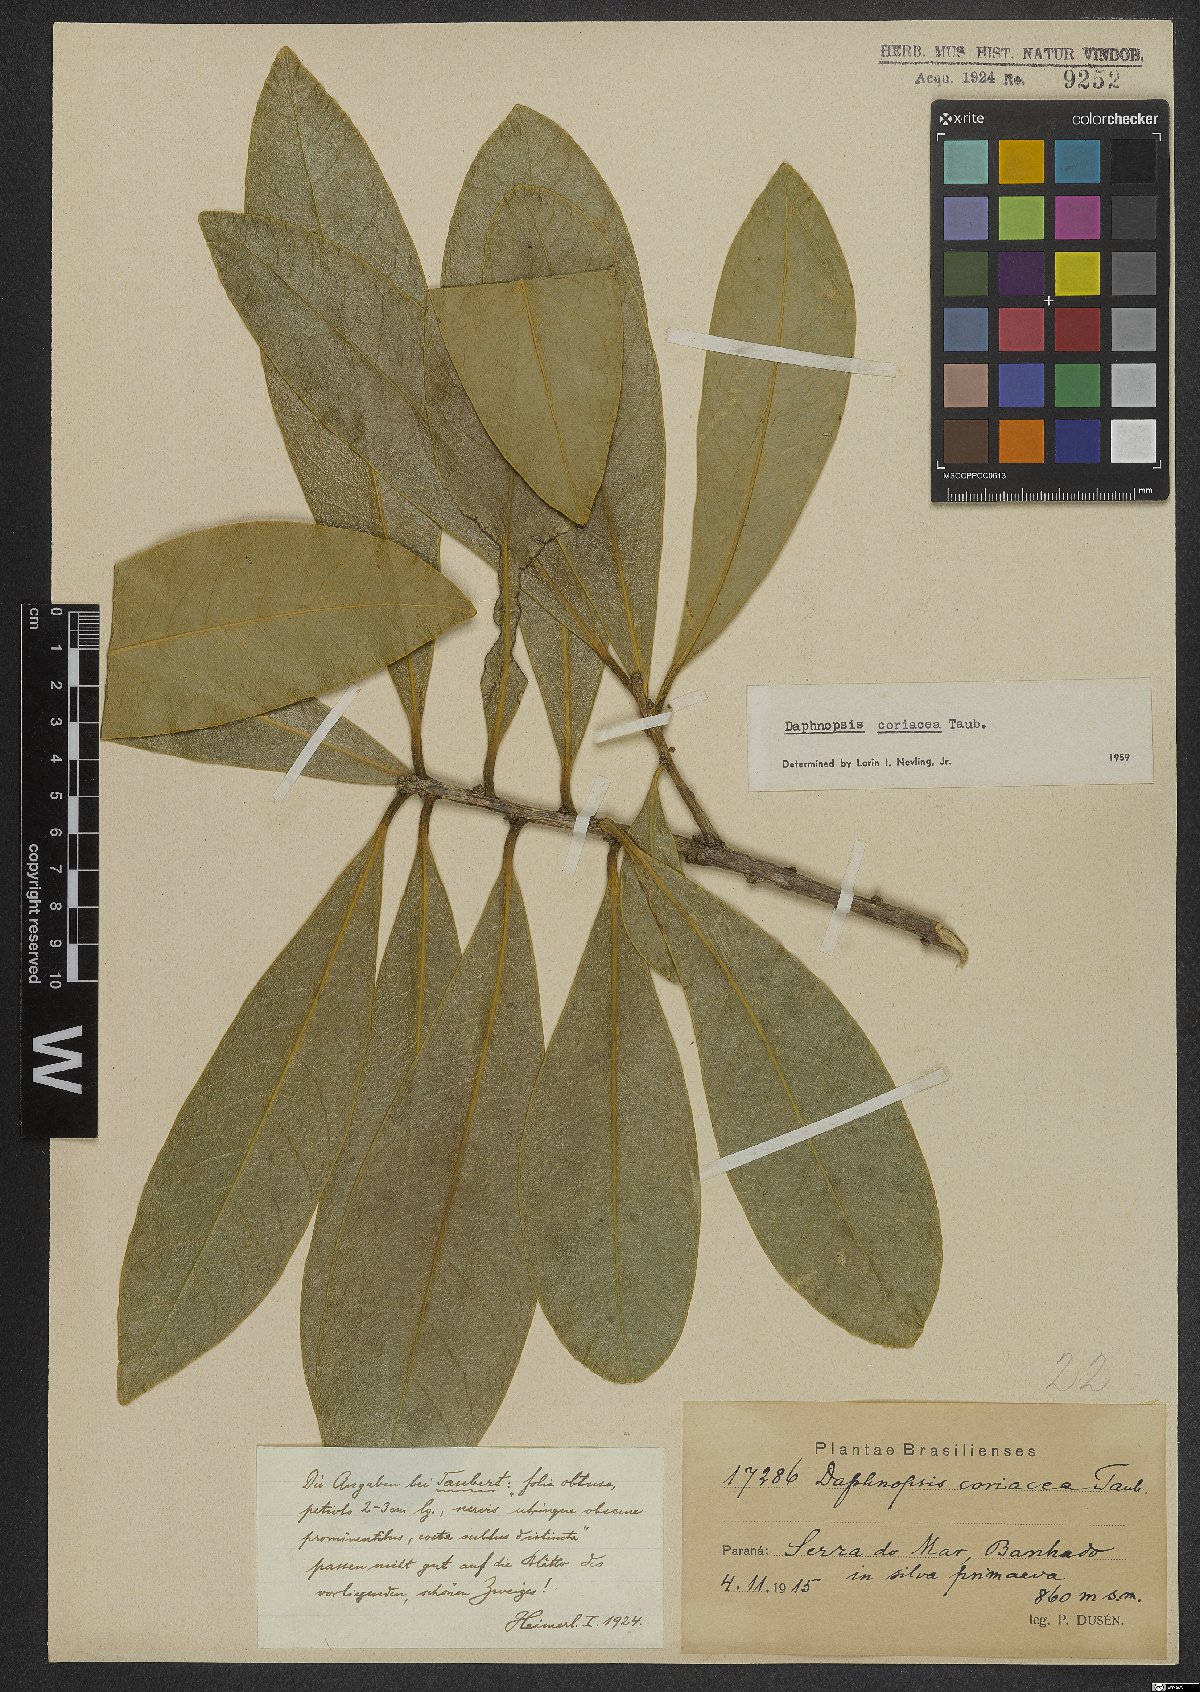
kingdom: Plantae
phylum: Tracheophyta
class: Magnoliopsida
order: Malvales
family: Thymelaeaceae
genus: Daphnopsis
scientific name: Daphnopsis coriacea
